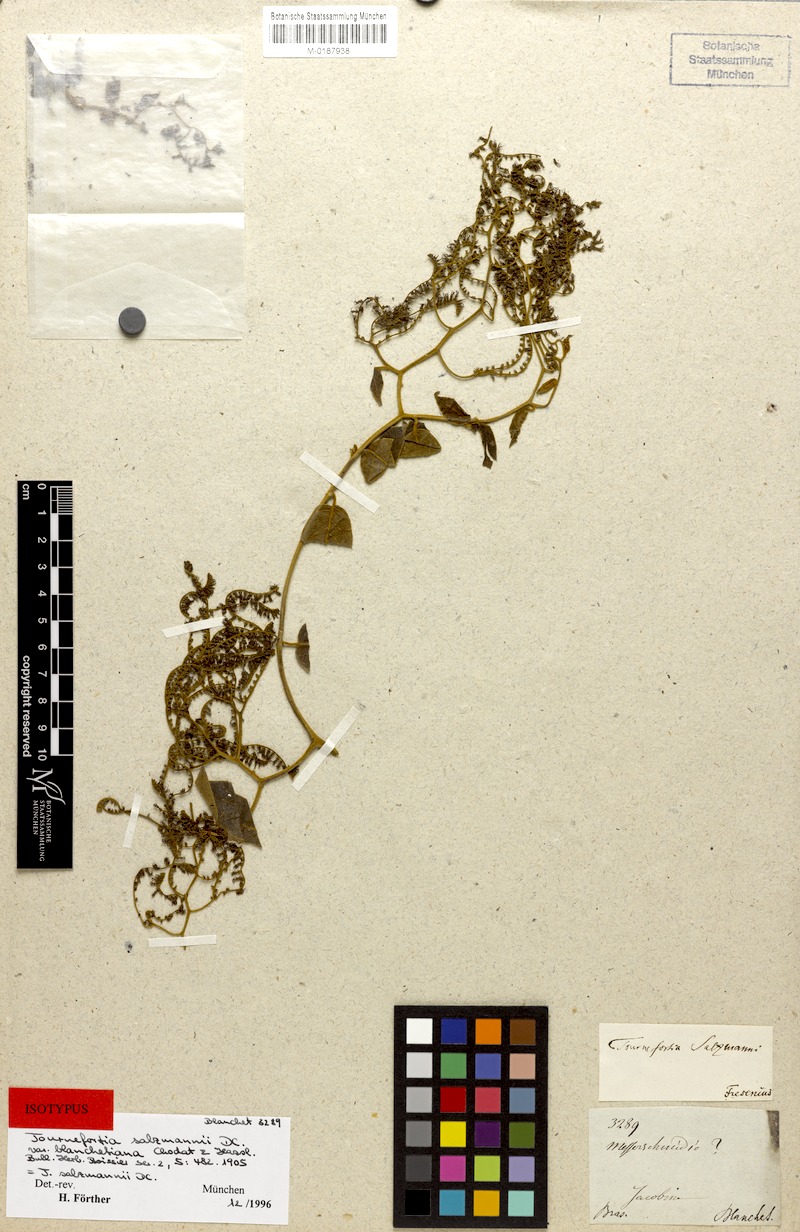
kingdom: Plantae
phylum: Tracheophyta
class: Magnoliopsida
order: Boraginales
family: Heliotropiaceae
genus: Myriopus
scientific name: Myriopus salzmannii
